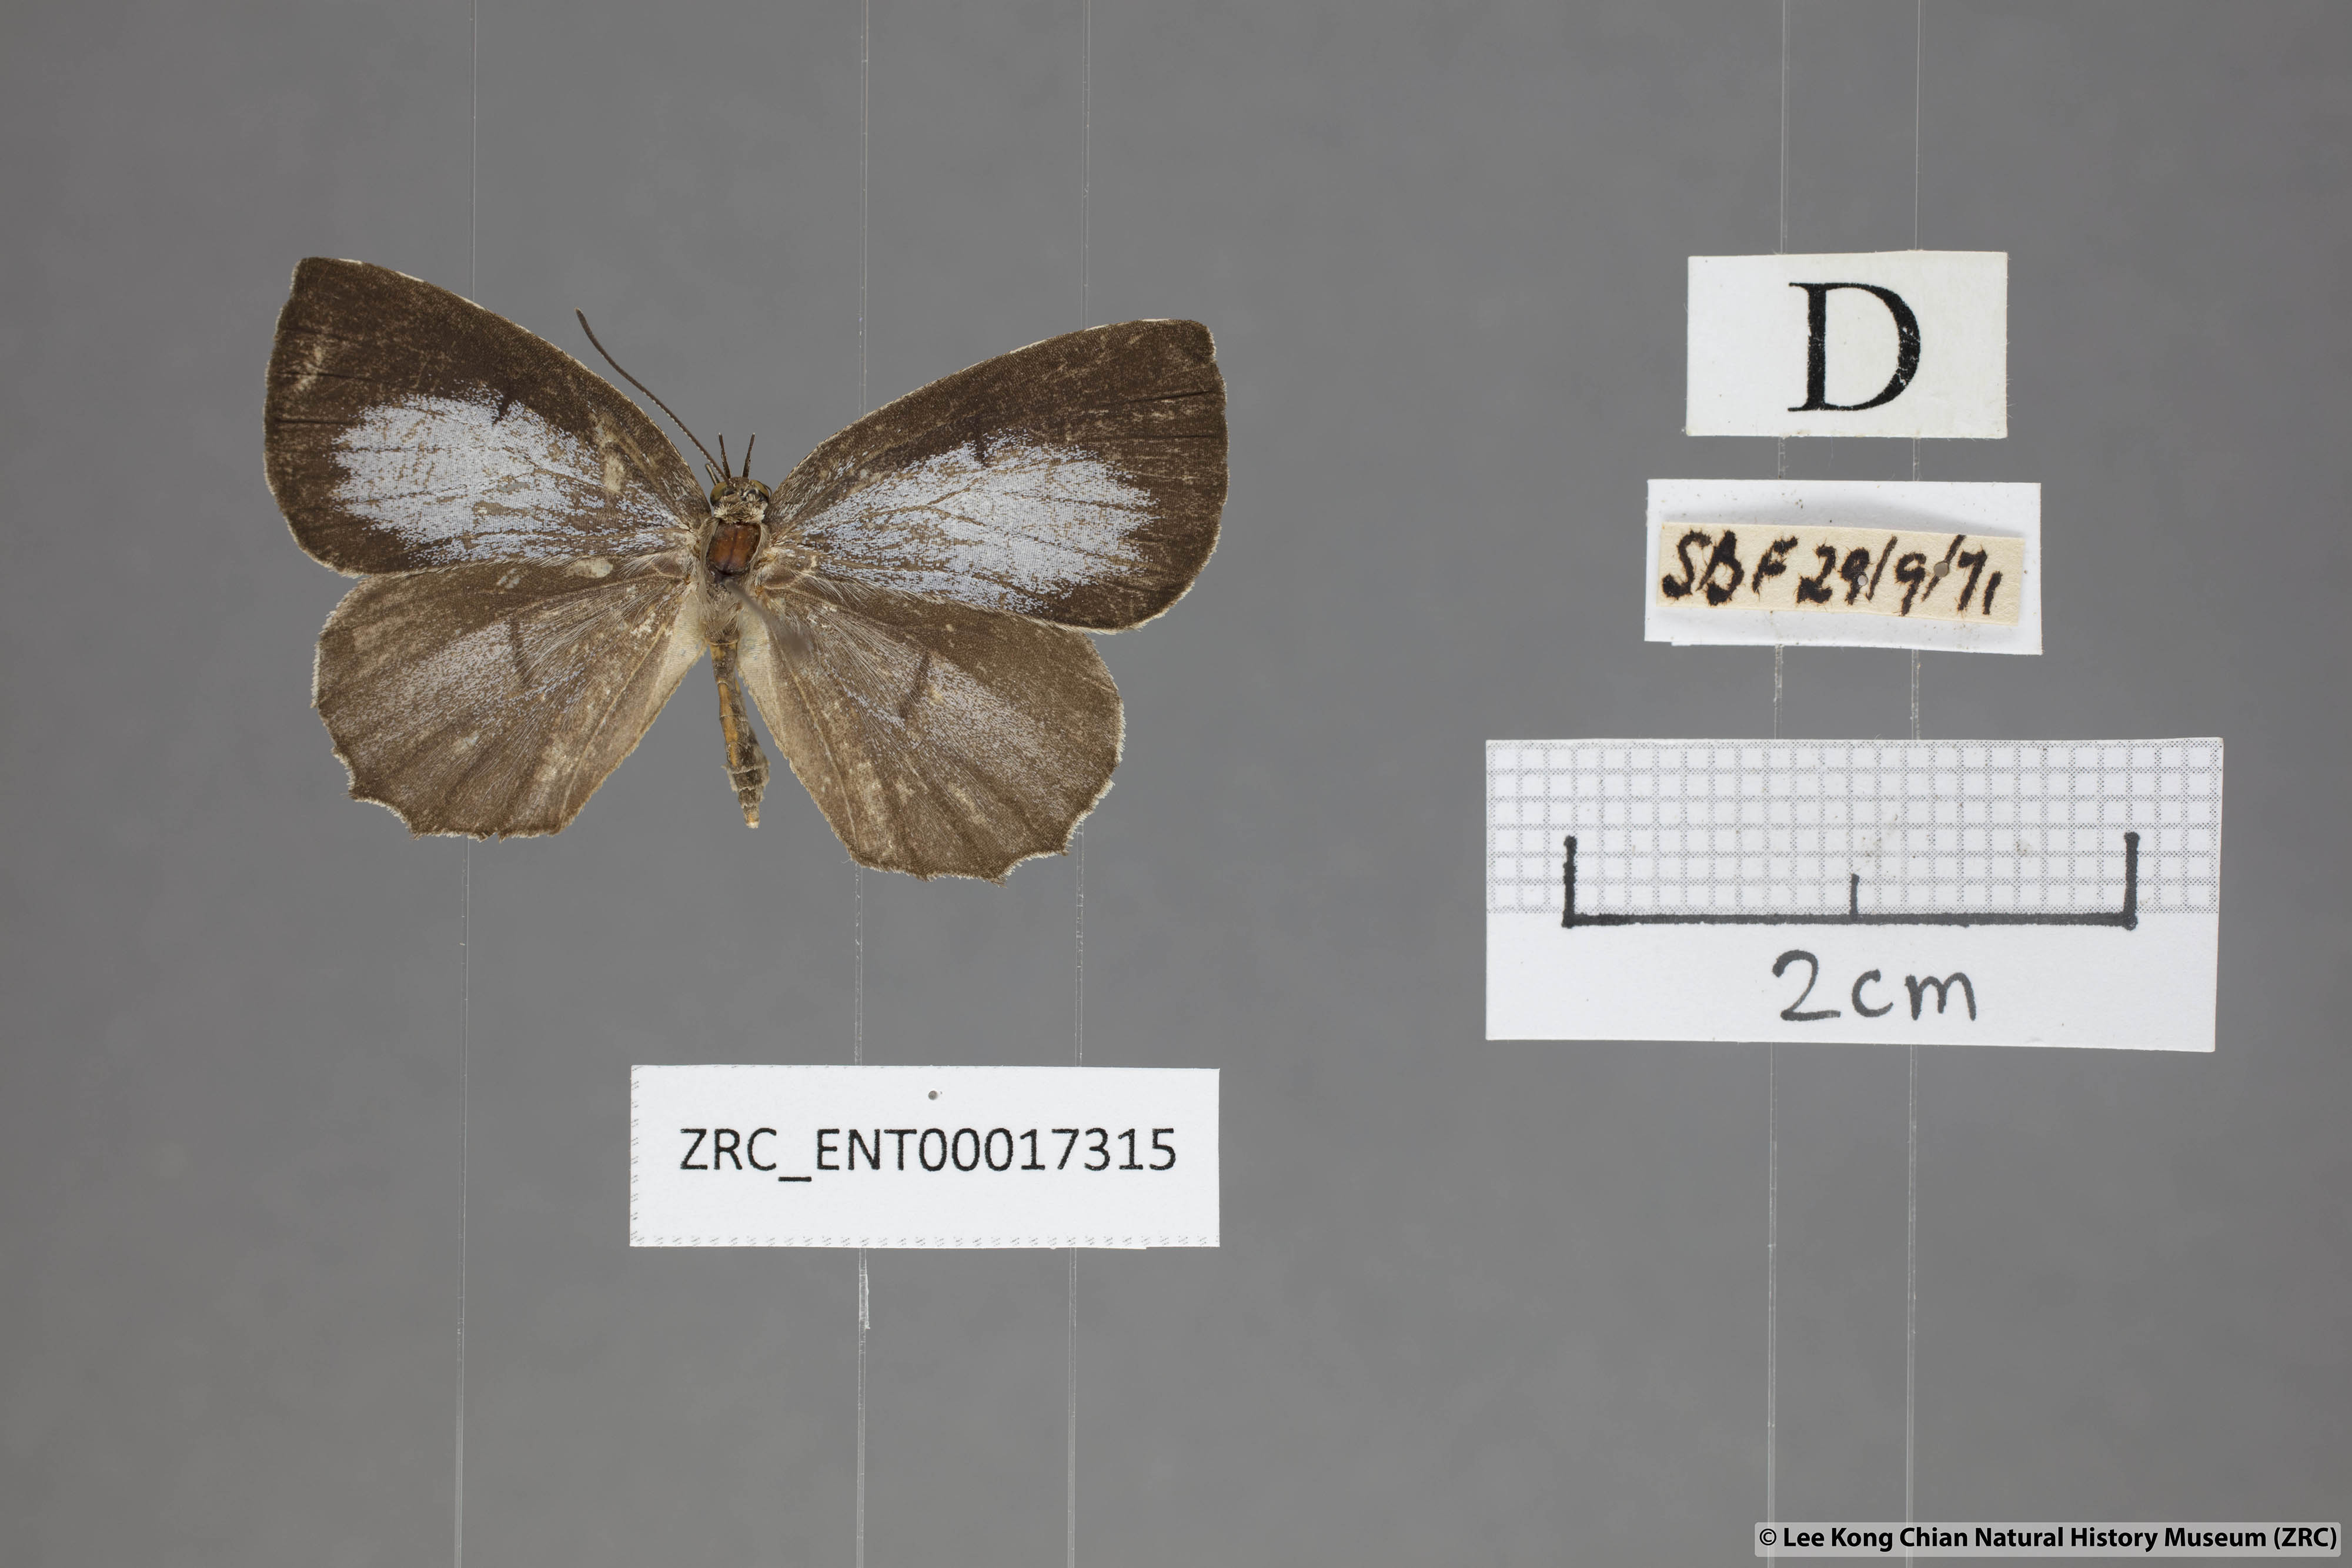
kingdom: Animalia
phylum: Arthropoda
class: Insecta
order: Lepidoptera
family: Lycaenidae
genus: Allotinus
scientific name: Allotinus subviolaceus
